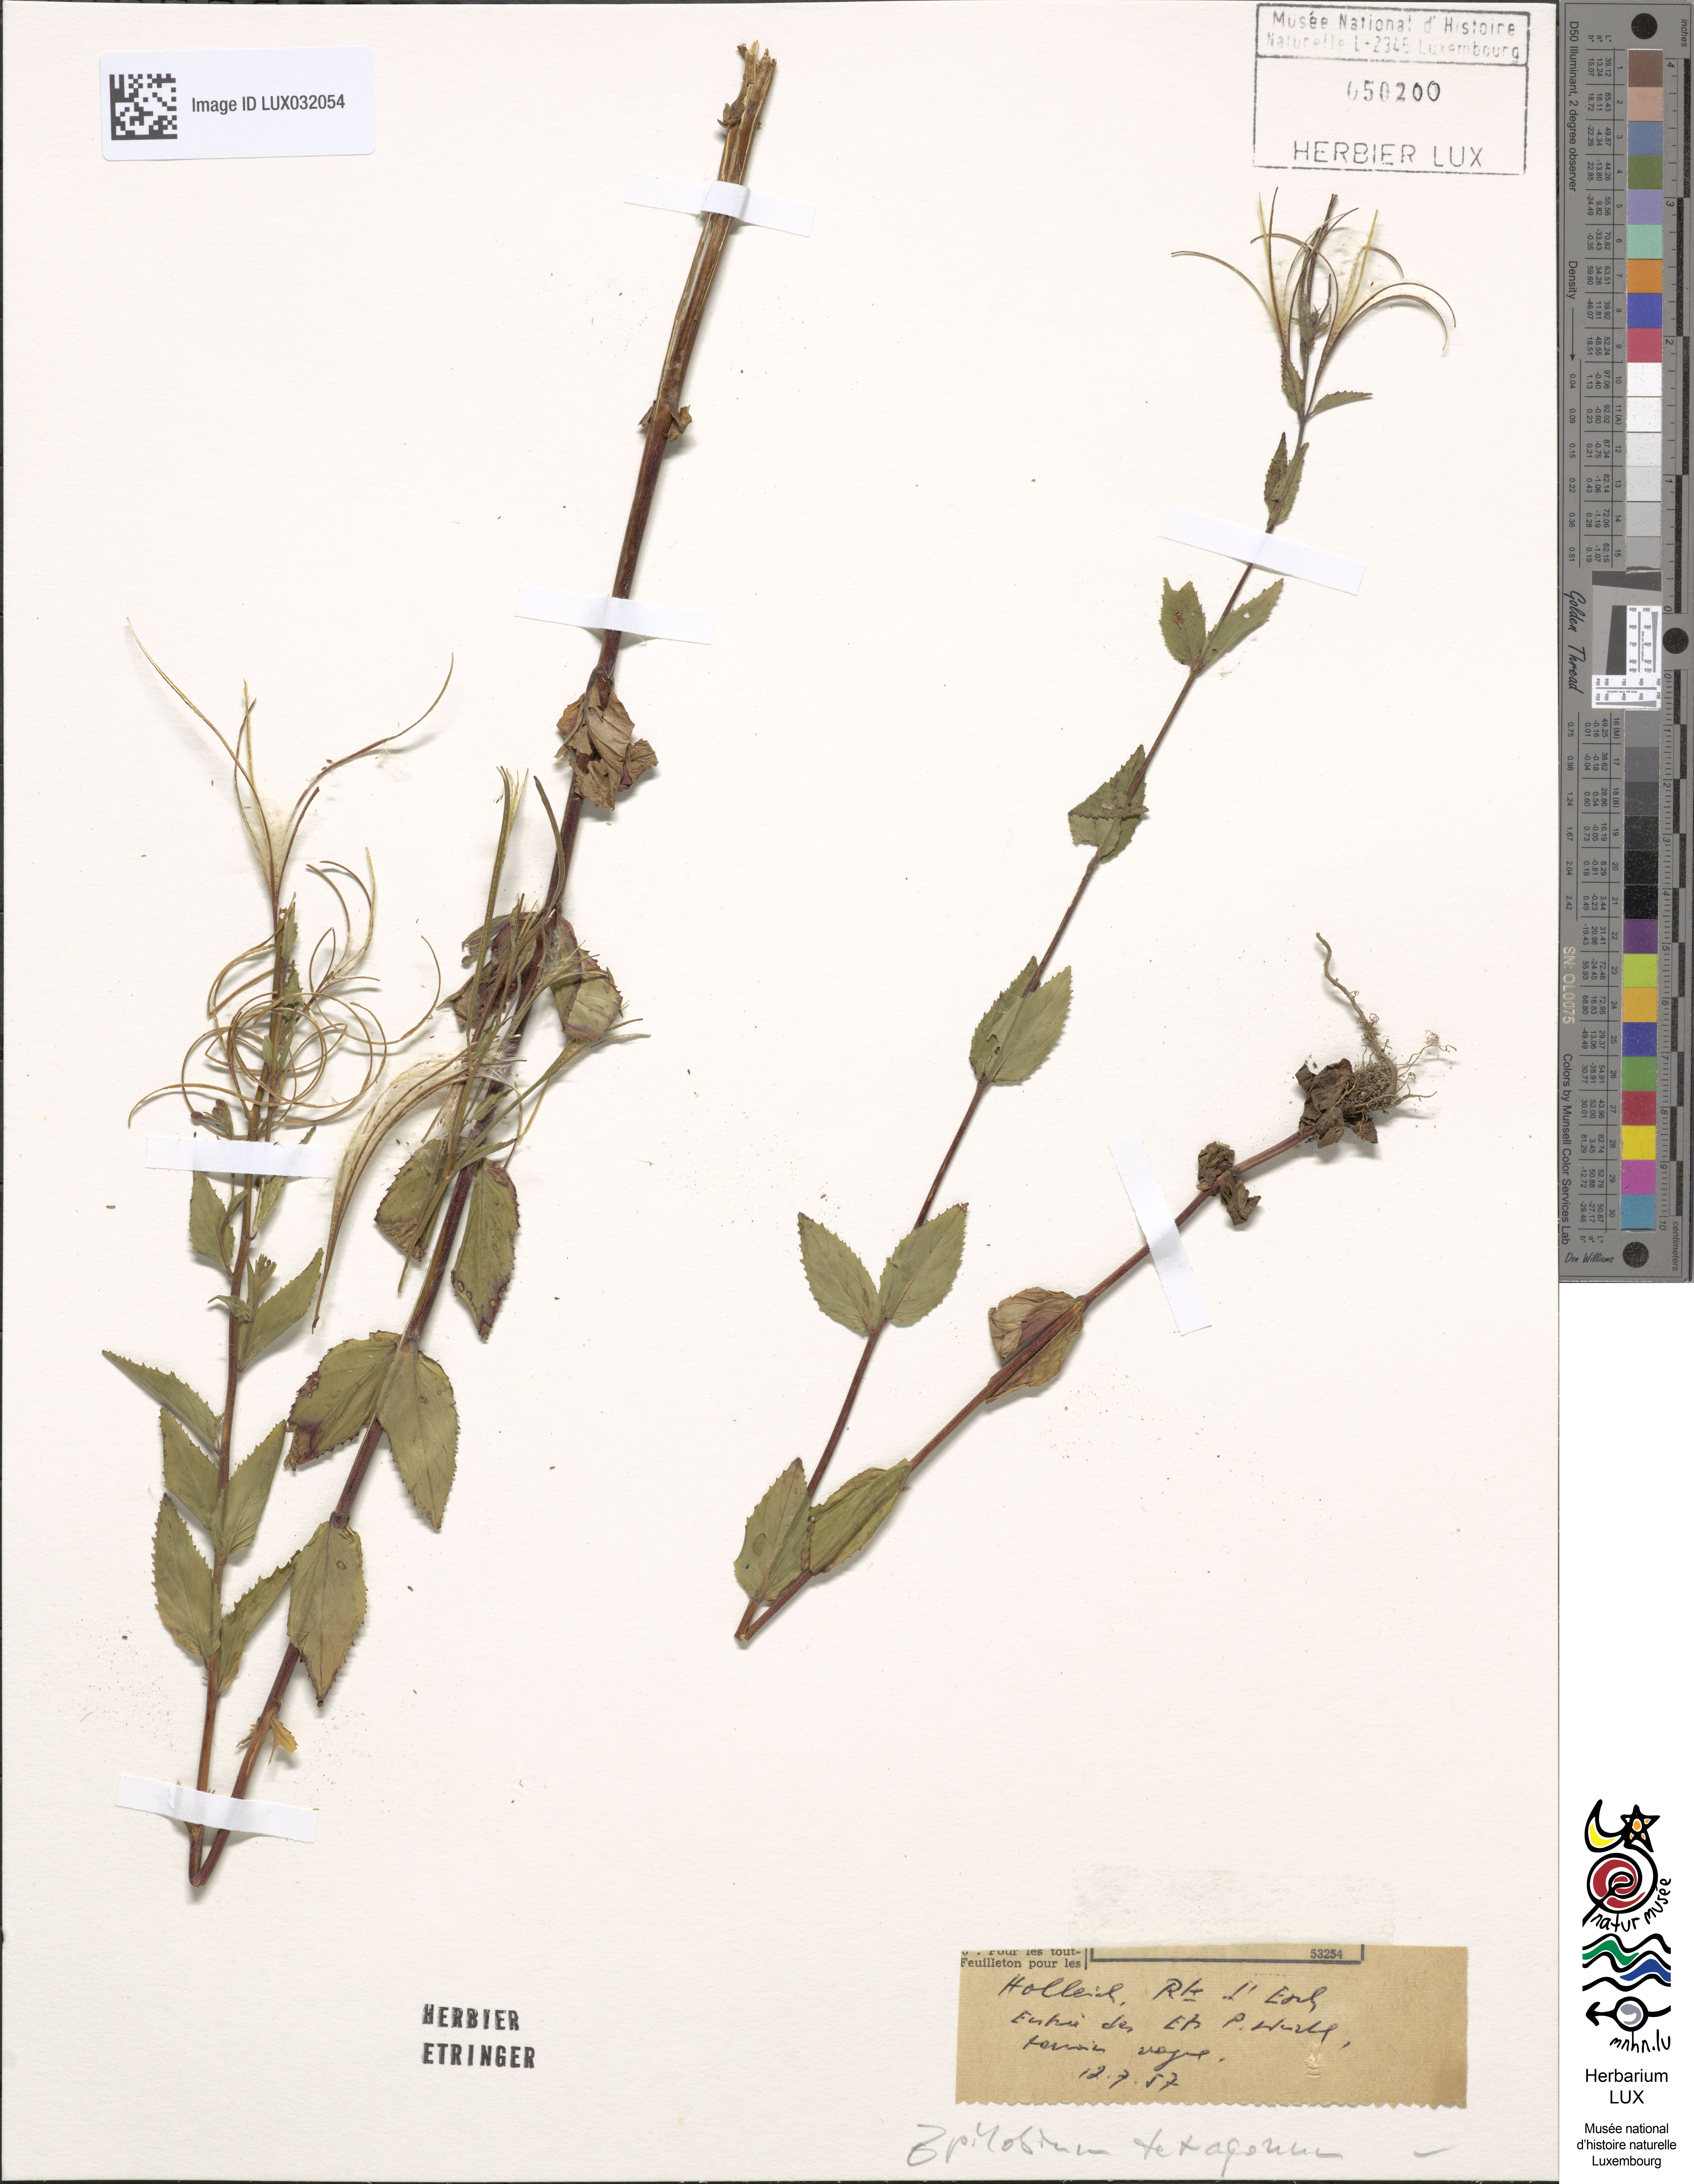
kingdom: Plantae
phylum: Tracheophyta
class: Magnoliopsida
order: Myrtales
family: Onagraceae
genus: Epilobium
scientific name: Epilobium tetragonum
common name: Square-stemmed willowherb
